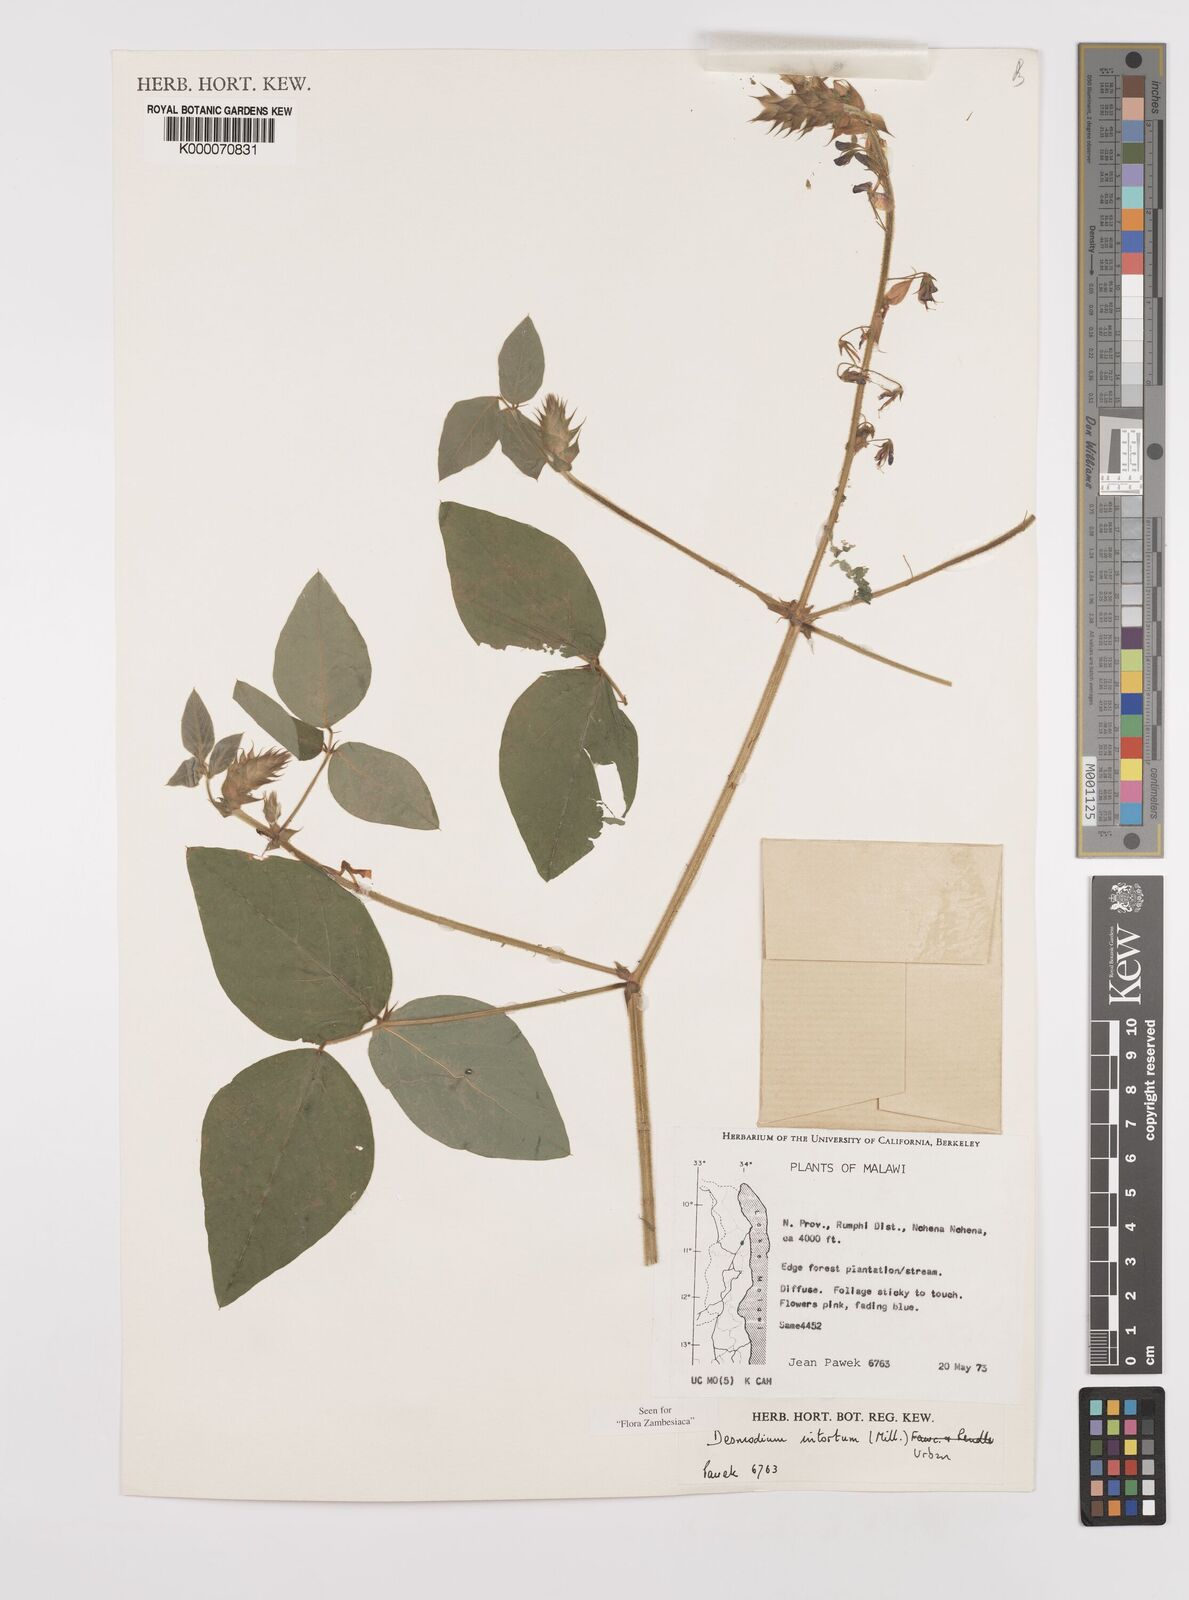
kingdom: Plantae
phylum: Tracheophyta
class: Magnoliopsida
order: Fabales
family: Fabaceae
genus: Desmodium
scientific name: Desmodium intortum
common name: Greenleaf ticktrefoil
